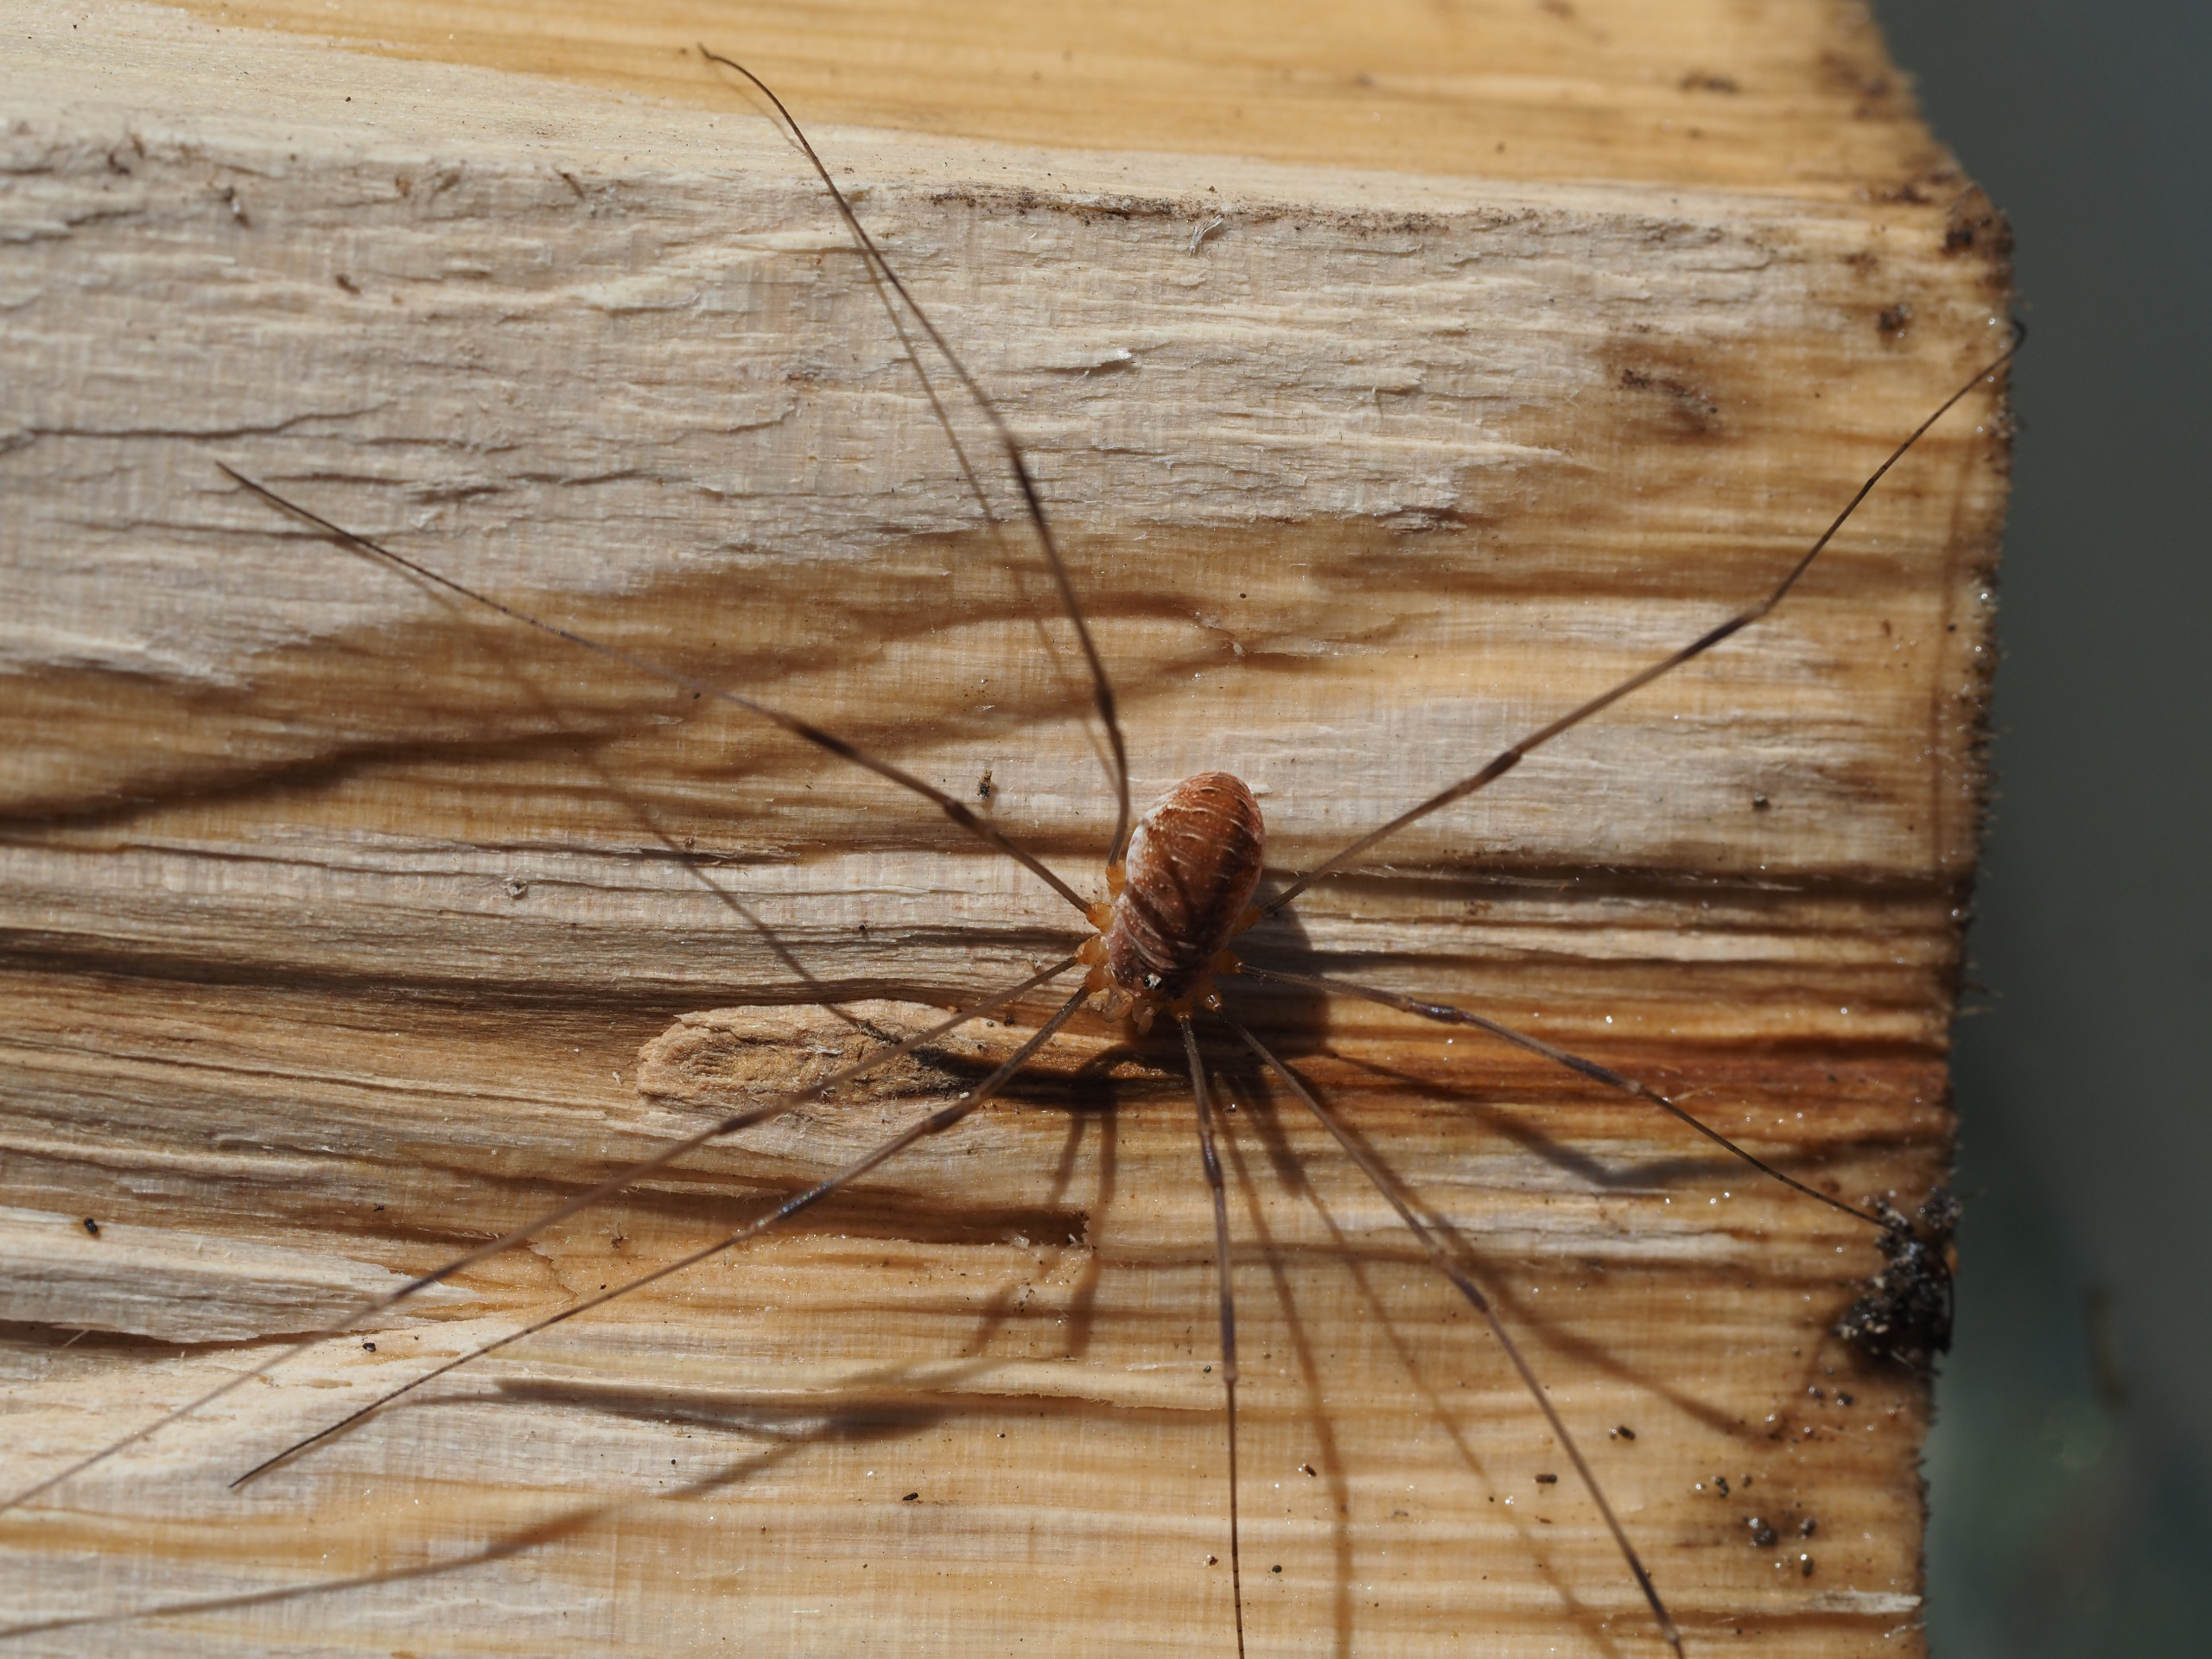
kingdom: Animalia
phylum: Arthropoda
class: Arachnida
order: Opiliones
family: Phalangiidae
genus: Opilio
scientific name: Opilio canestrinii
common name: Orange vægmejer
